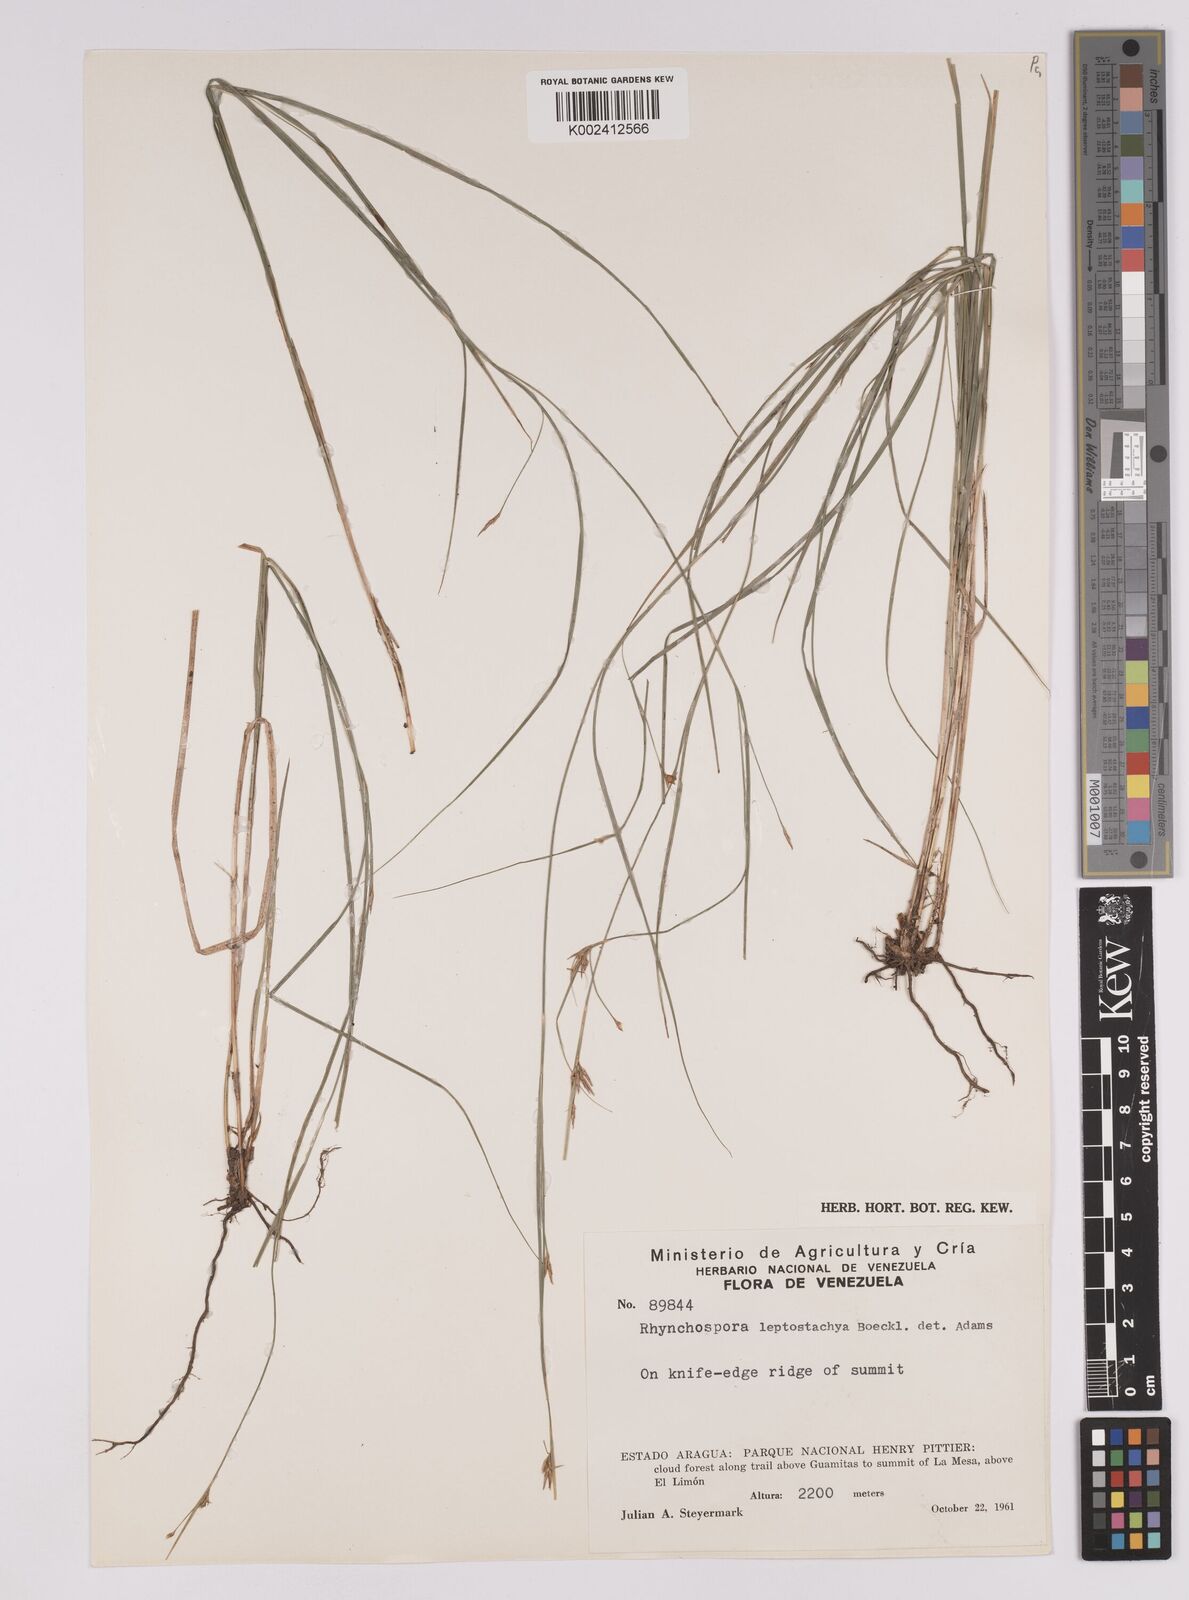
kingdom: Plantae
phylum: Tracheophyta
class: Liliopsida
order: Poales
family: Cyperaceae
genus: Rhynchospora
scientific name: Rhynchospora emaciata
